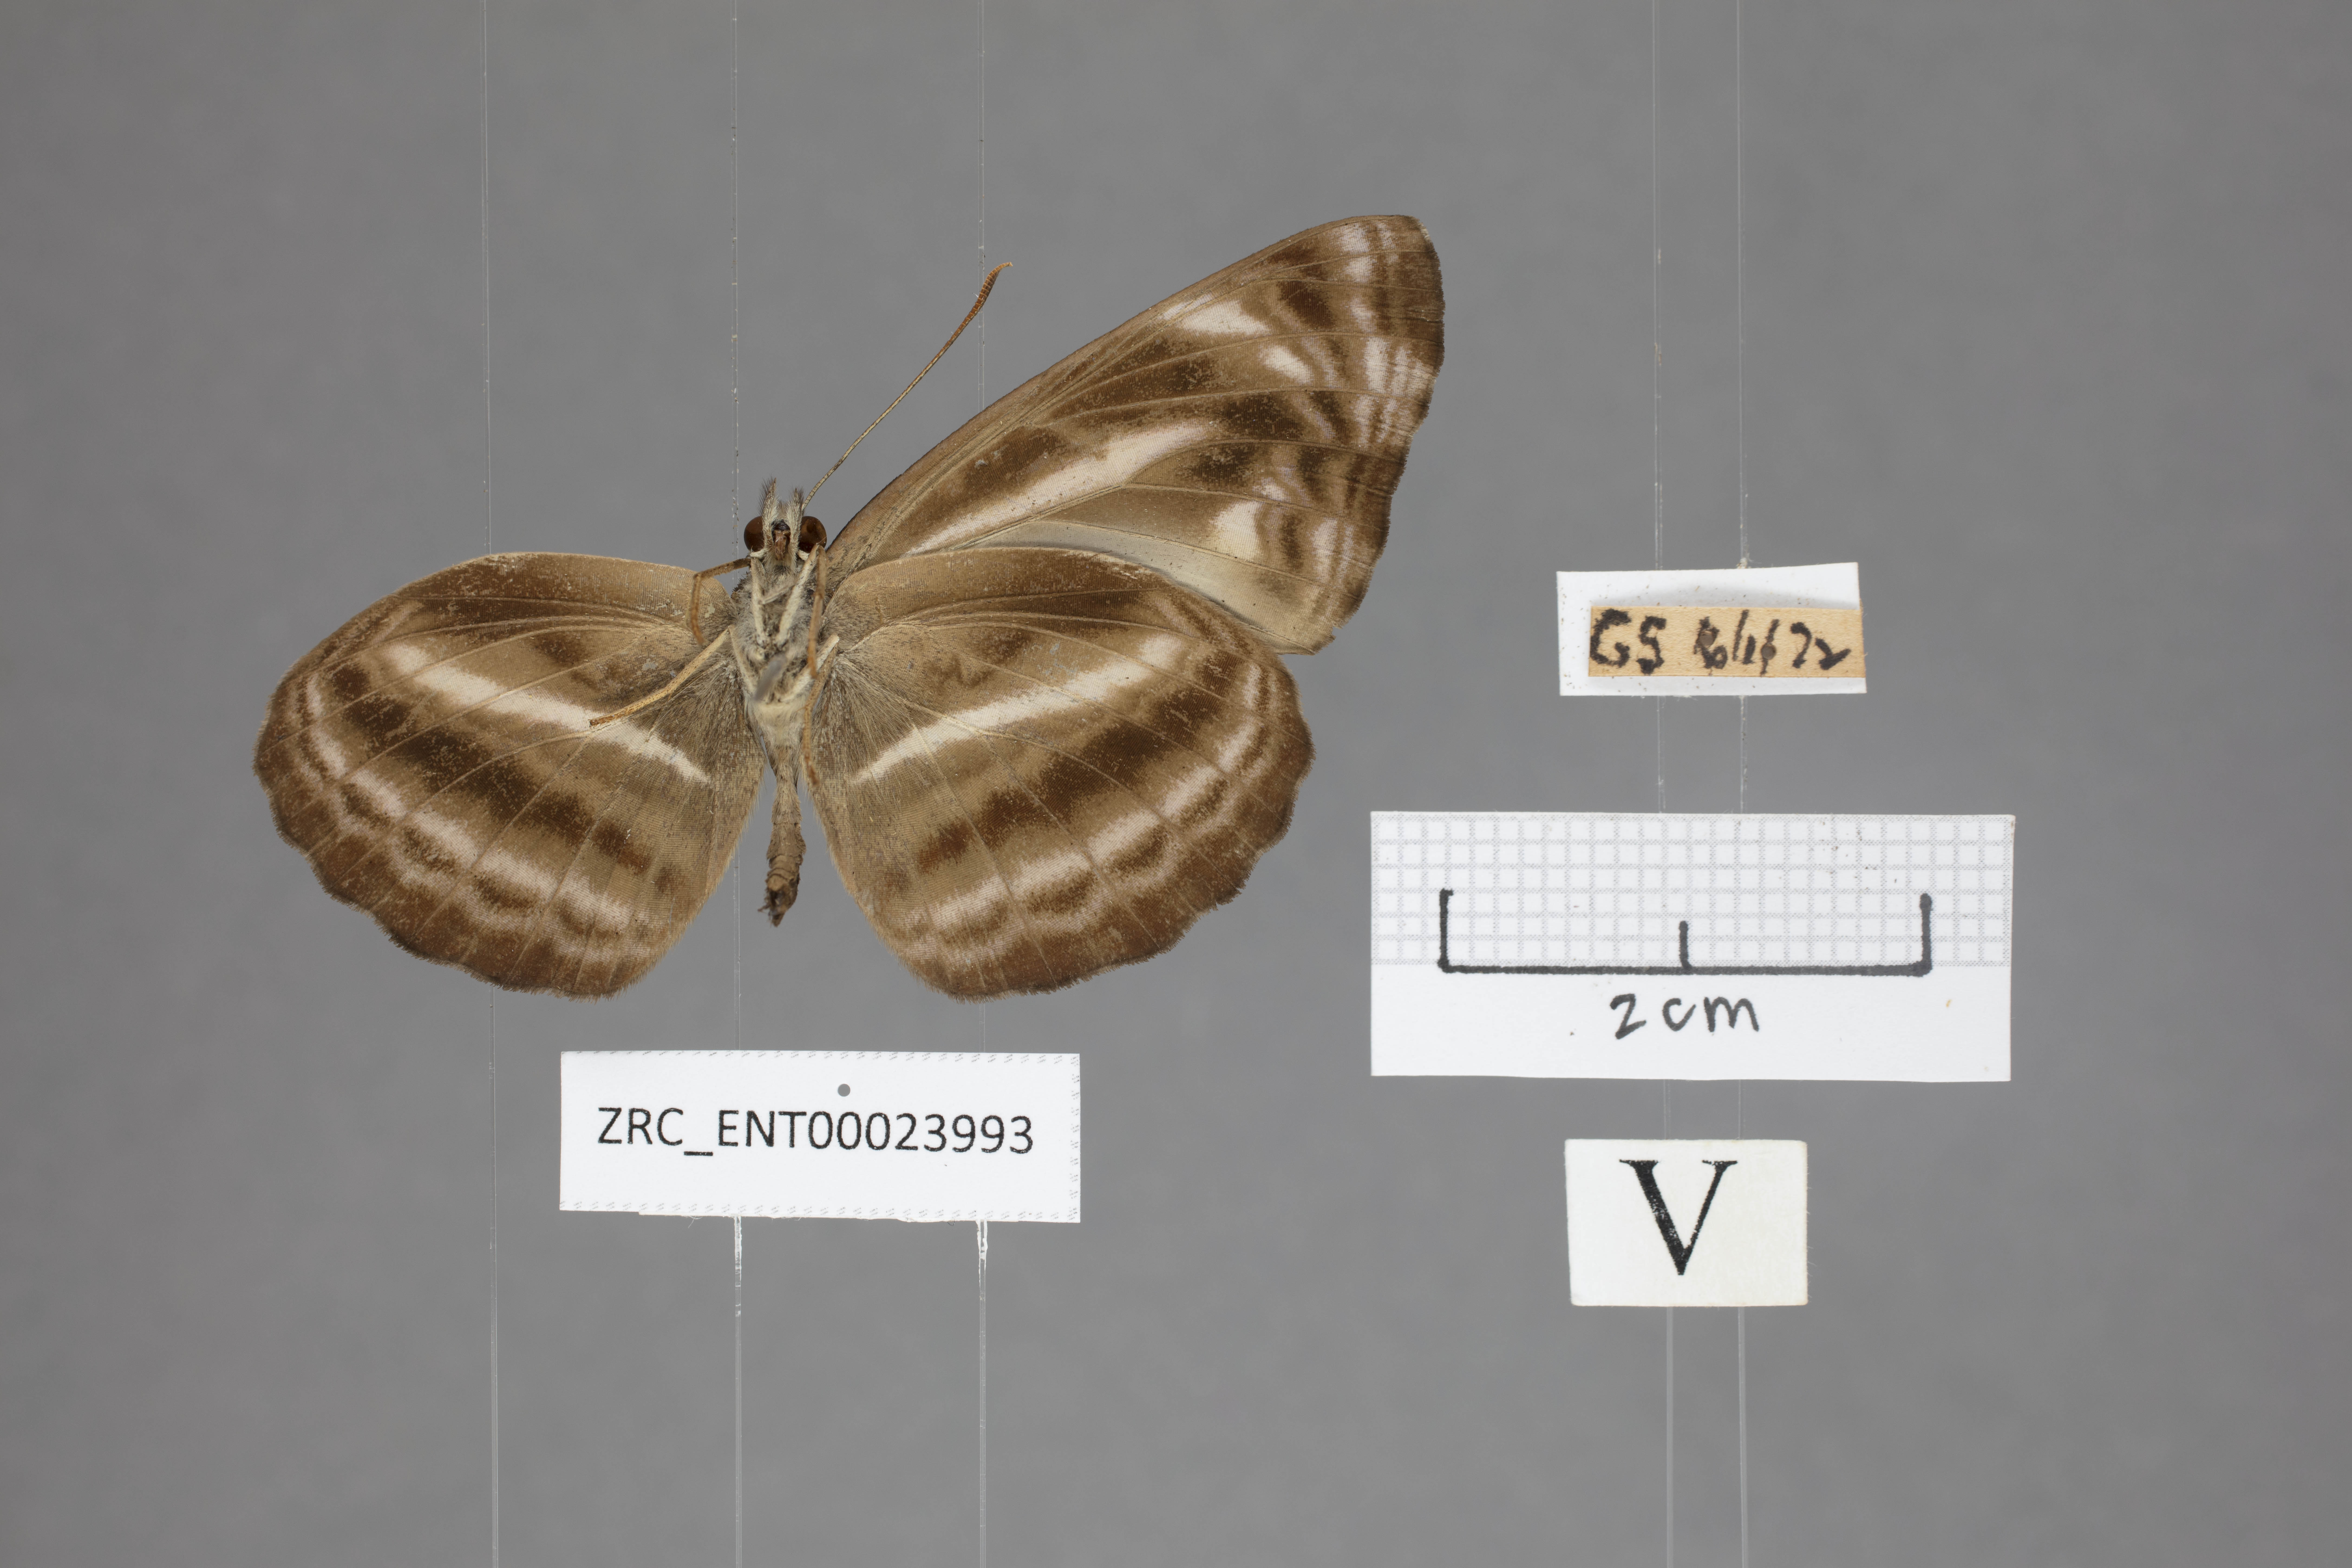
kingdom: Animalia
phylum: Arthropoda
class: Insecta
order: Lepidoptera
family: Nymphalidae
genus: Neptis
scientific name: Neptis harita
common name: Chocolate sailer
